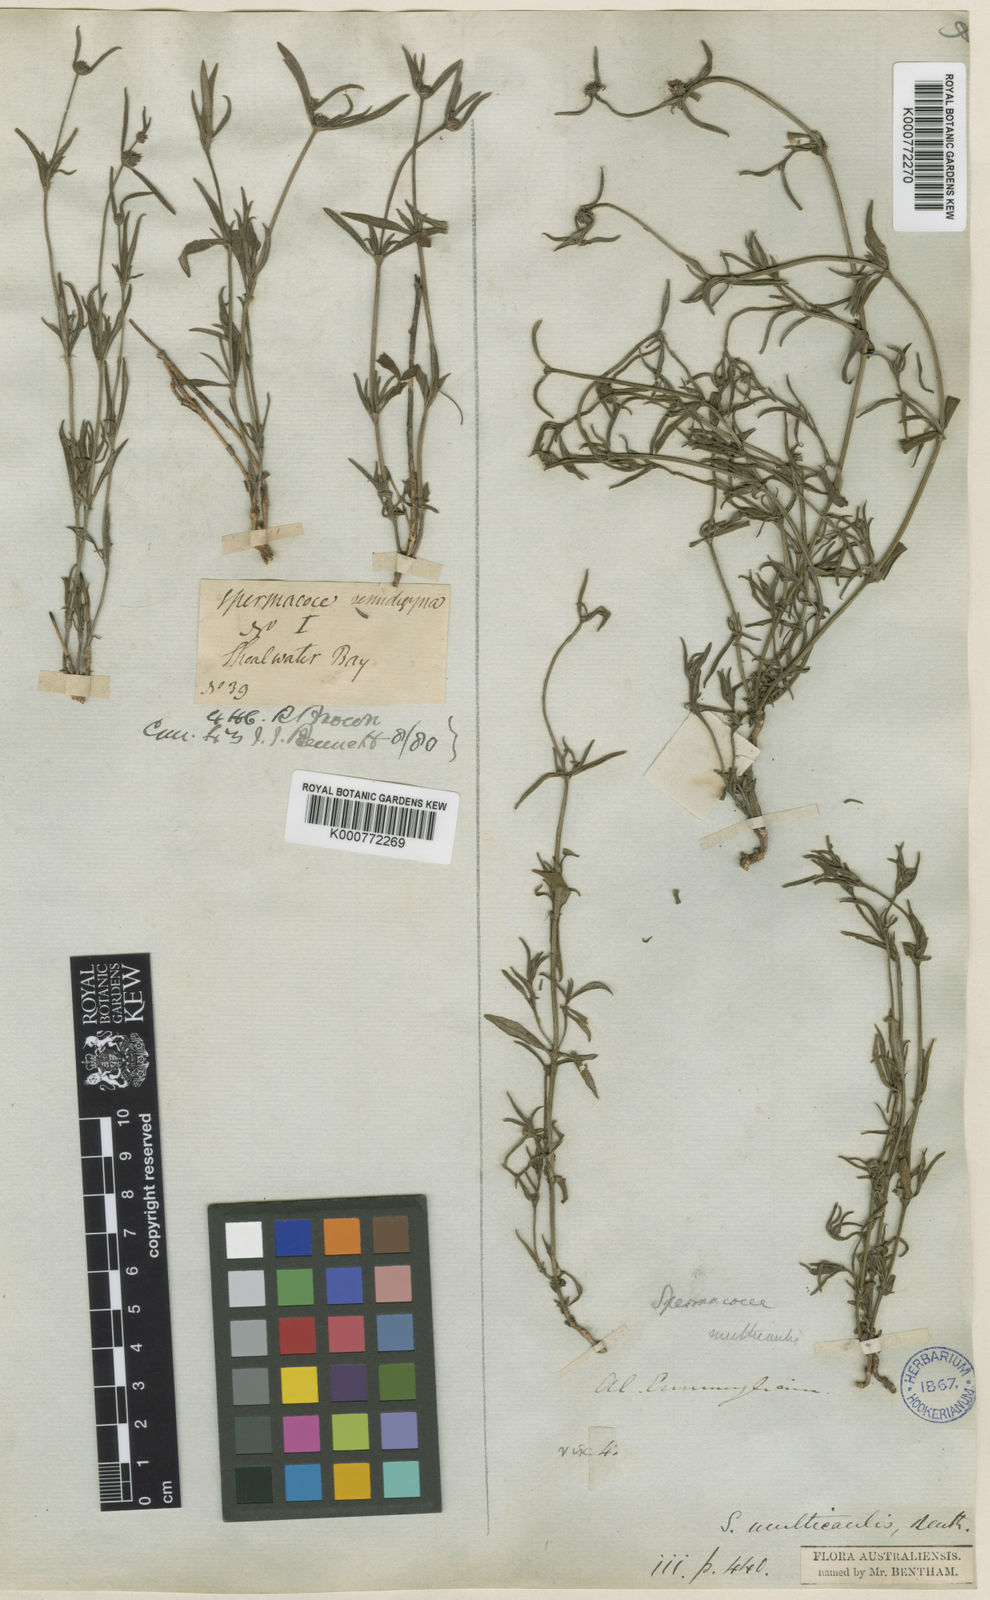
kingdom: Plantae
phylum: Tracheophyta
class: Magnoliopsida
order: Gentianales
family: Rubiaceae
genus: Spermacoce
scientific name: Spermacoce multicaulis
